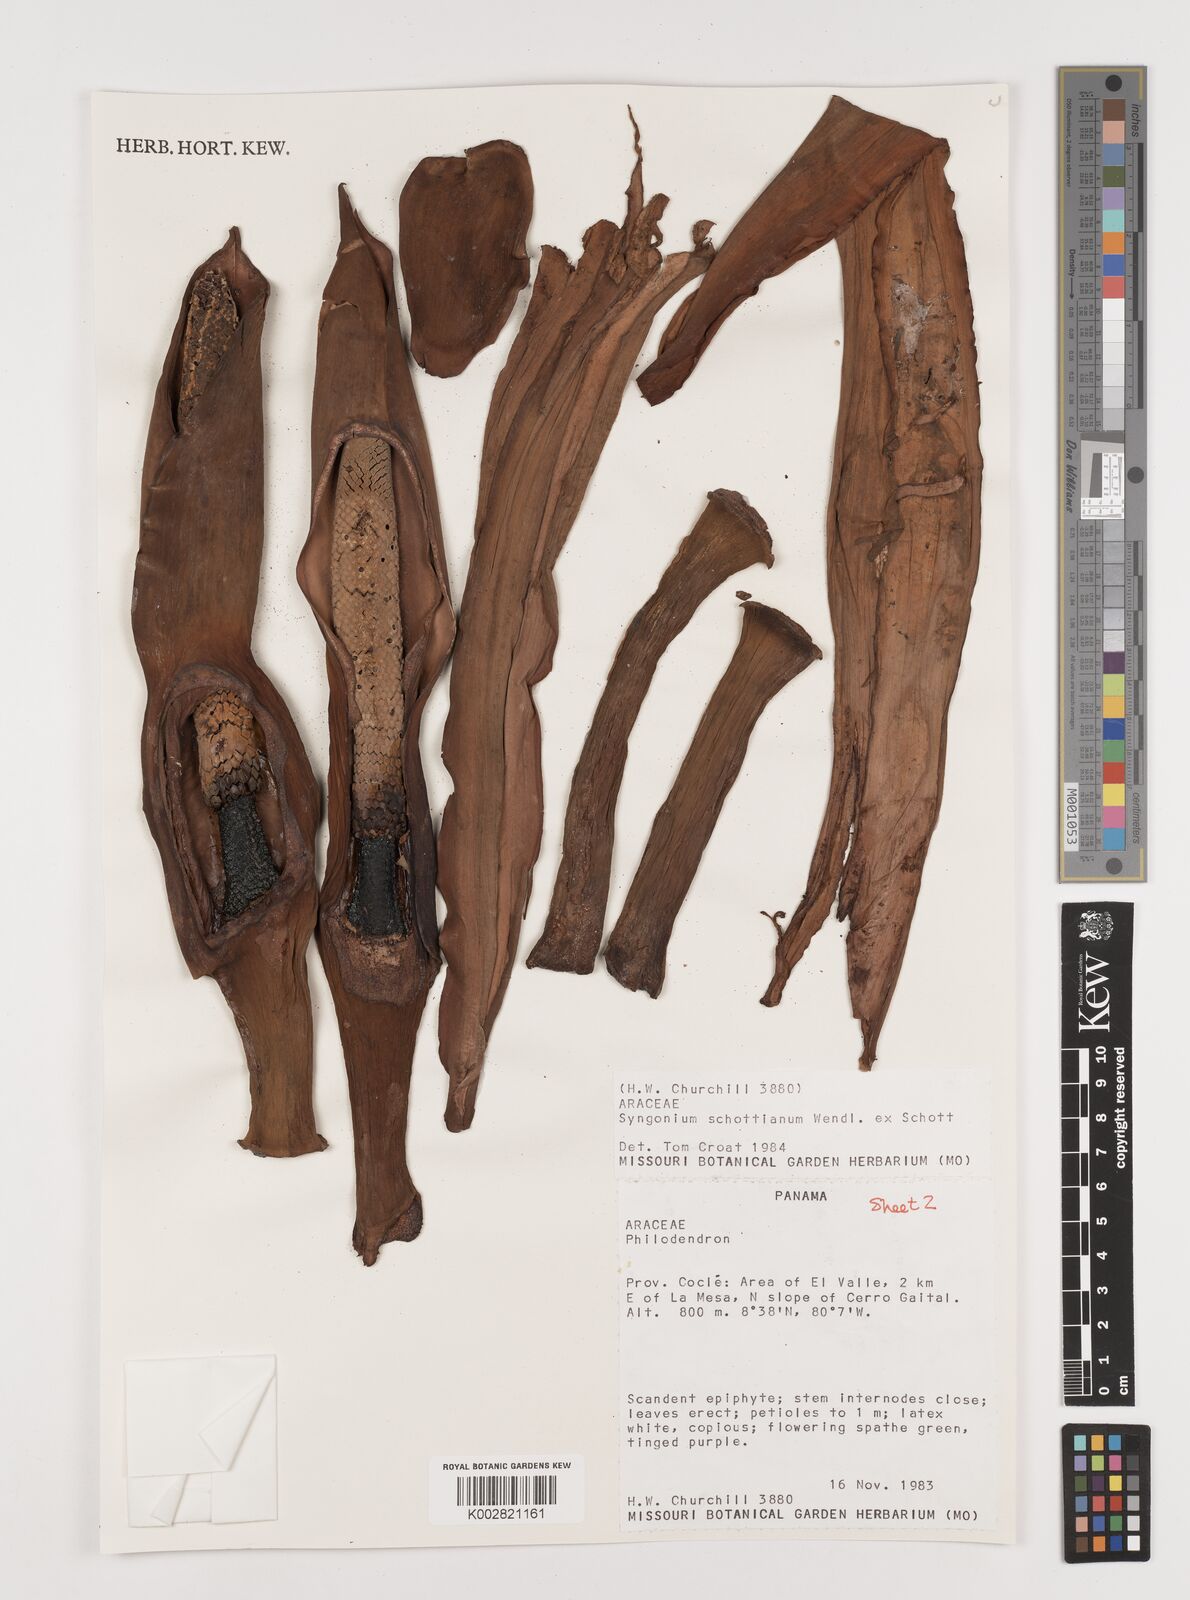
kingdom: Plantae
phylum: Tracheophyta
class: Liliopsida
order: Alismatales
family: Araceae
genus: Syngonium
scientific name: Syngonium schottianum
